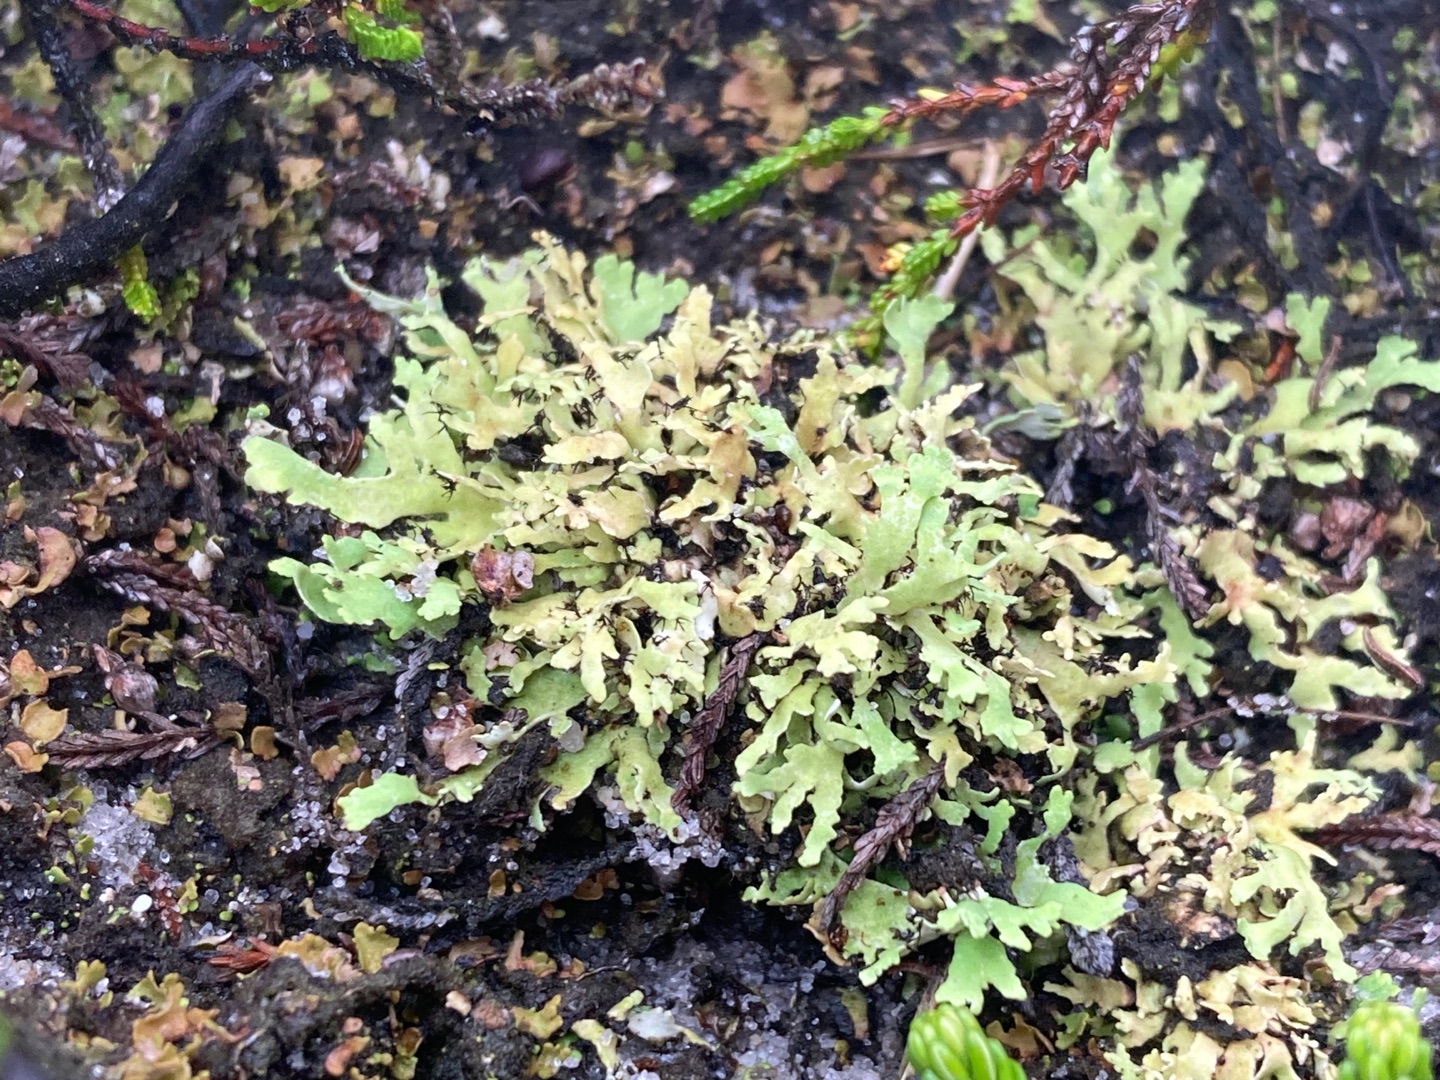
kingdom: Fungi
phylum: Ascomycota
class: Lecanoromycetes
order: Lecanorales
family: Cladoniaceae
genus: Cladonia
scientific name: Cladonia foliacea
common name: Fliget bægerlav
